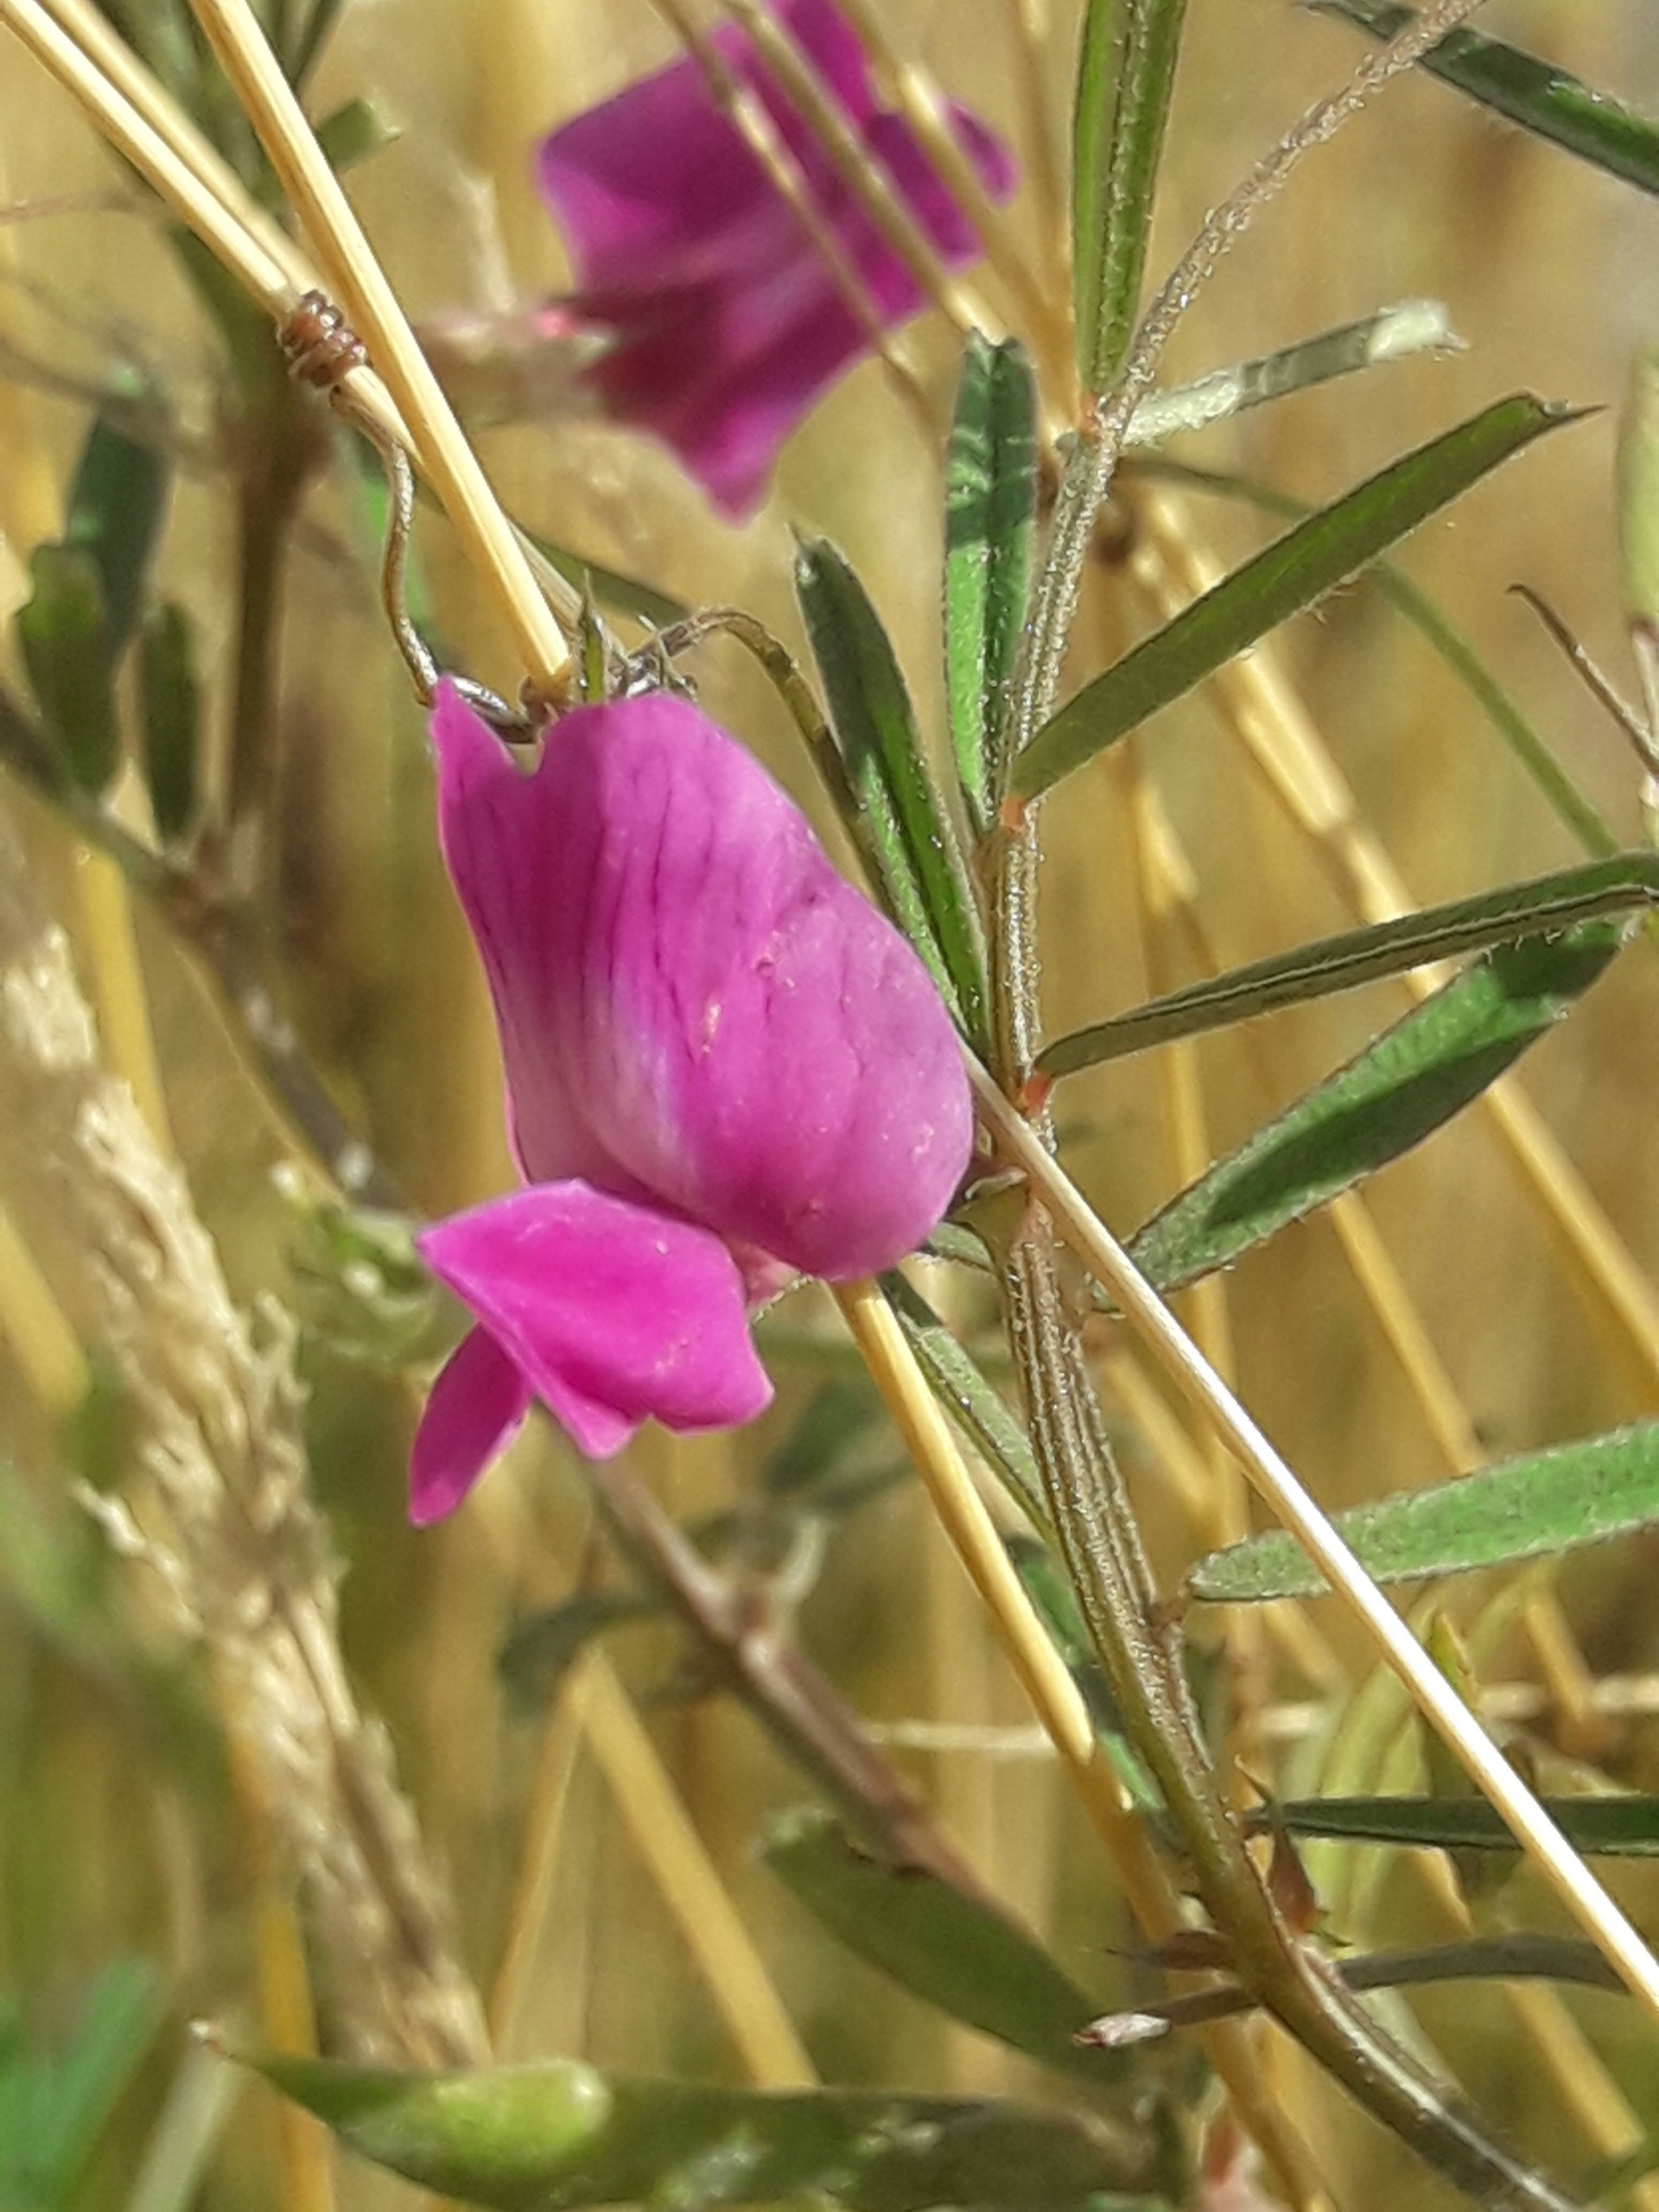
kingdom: Plantae
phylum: Tracheophyta
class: Magnoliopsida
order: Fabales
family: Fabaceae
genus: Vicia
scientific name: Vicia sativa
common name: Smalbladet vikke
